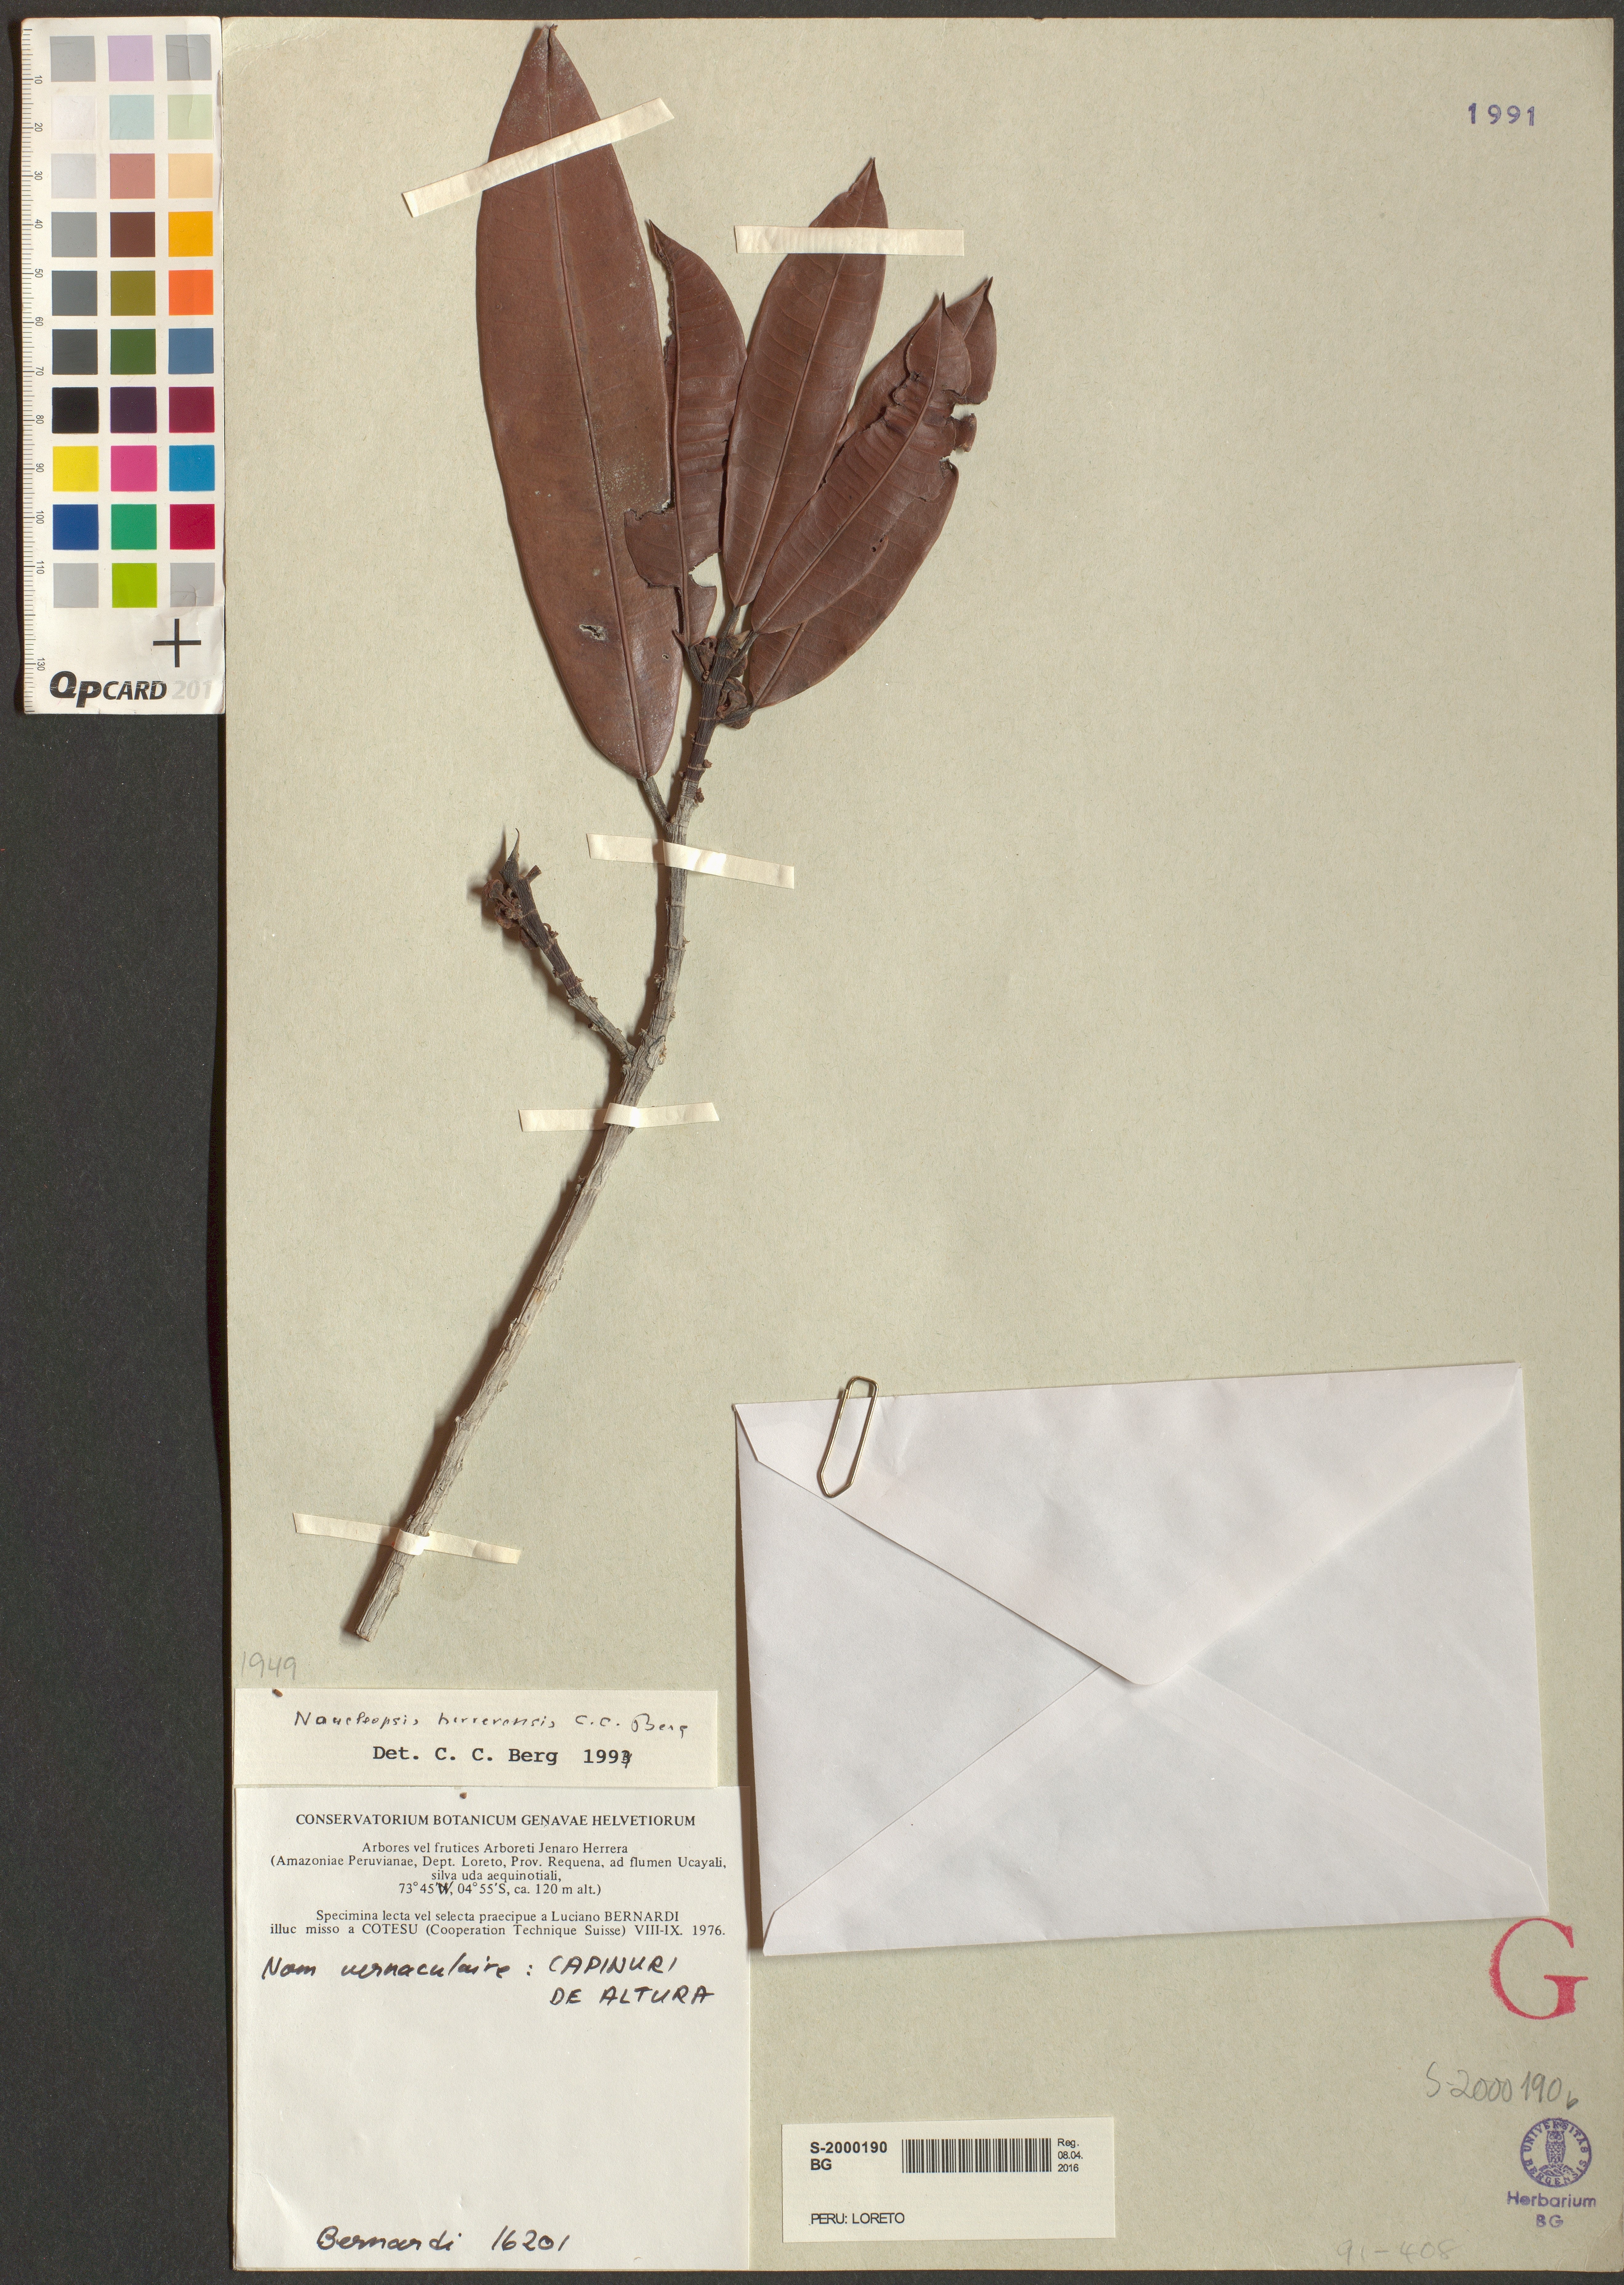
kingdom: Plantae
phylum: Tracheophyta
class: Magnoliopsida
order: Rosales
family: Moraceae
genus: Naucleopsis
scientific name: Naucleopsis herrerensis
